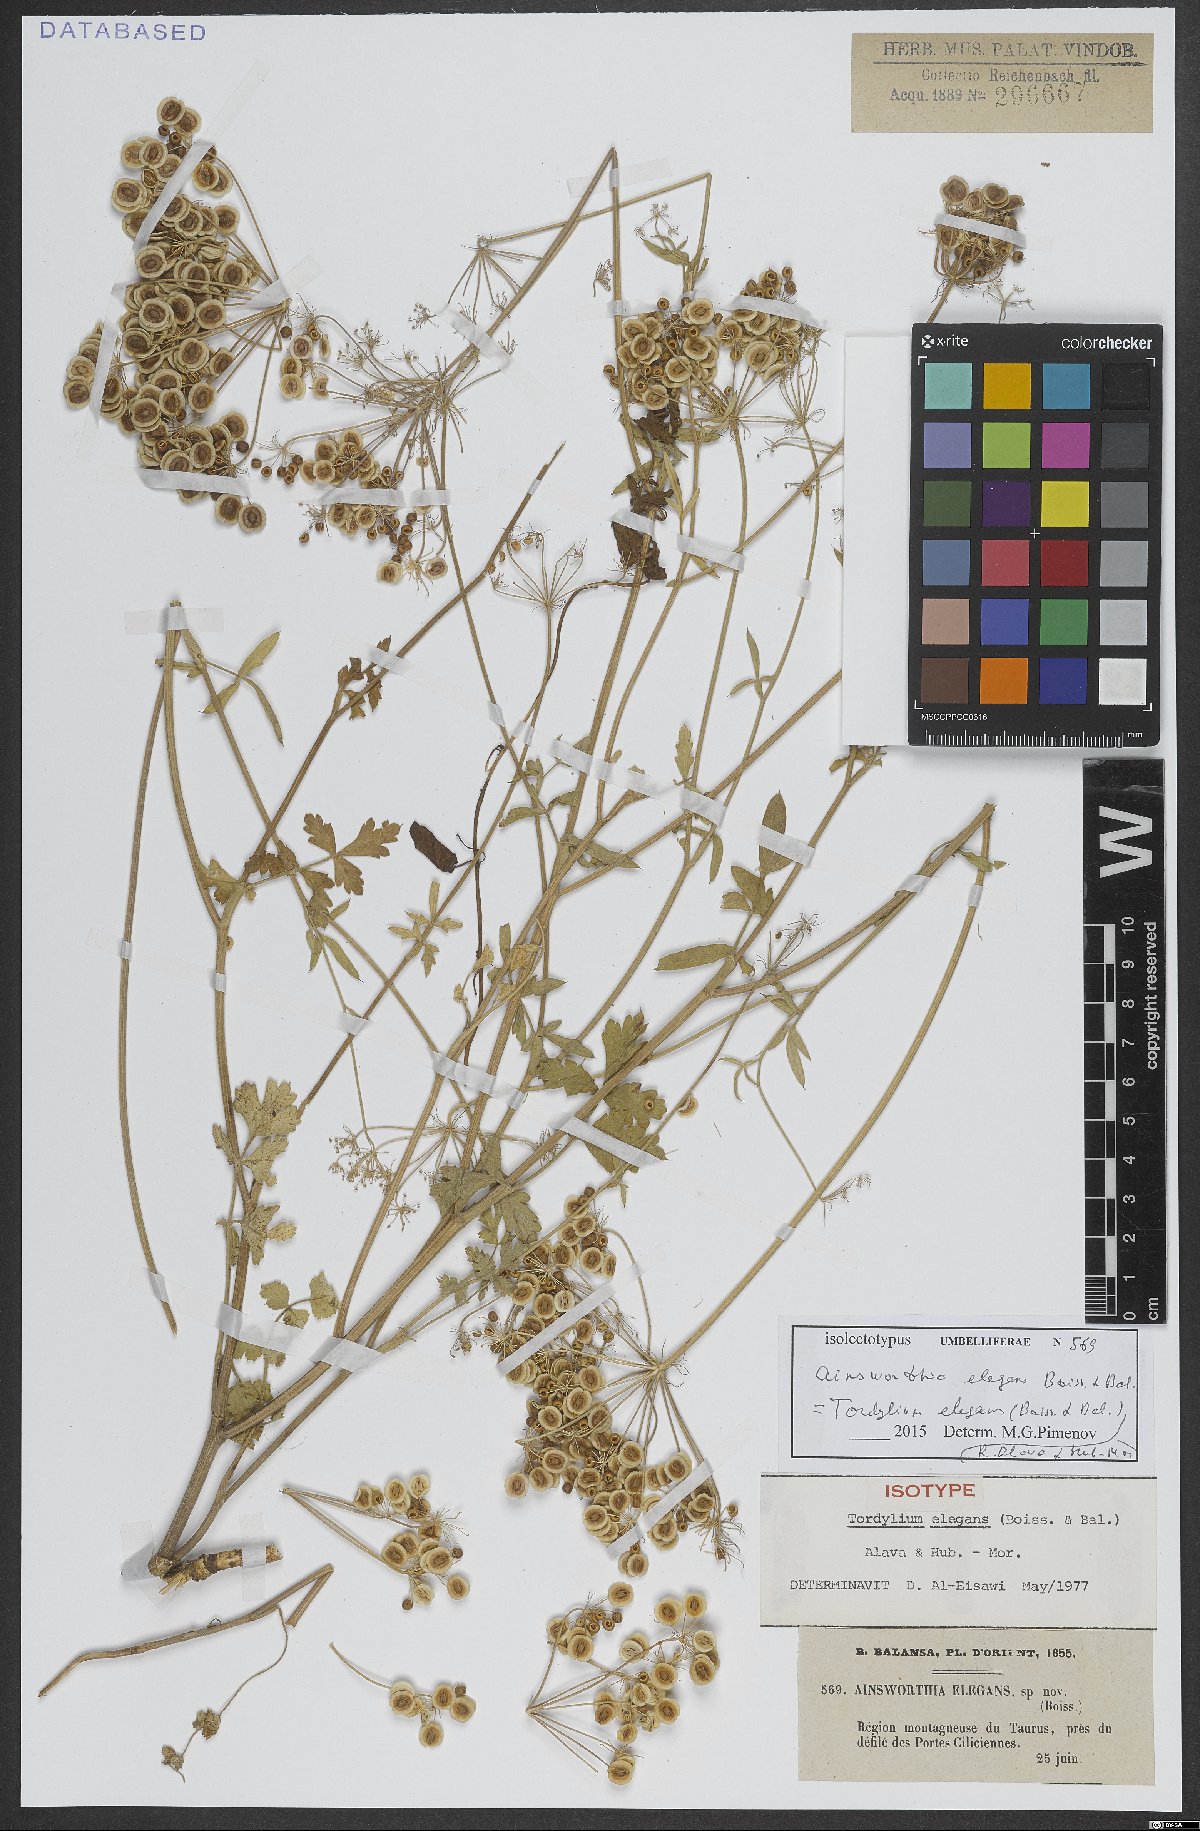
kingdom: Plantae
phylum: Tracheophyta
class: Magnoliopsida
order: Apiales
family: Apiaceae
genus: Ainsworthia
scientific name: Ainsworthia elegans
